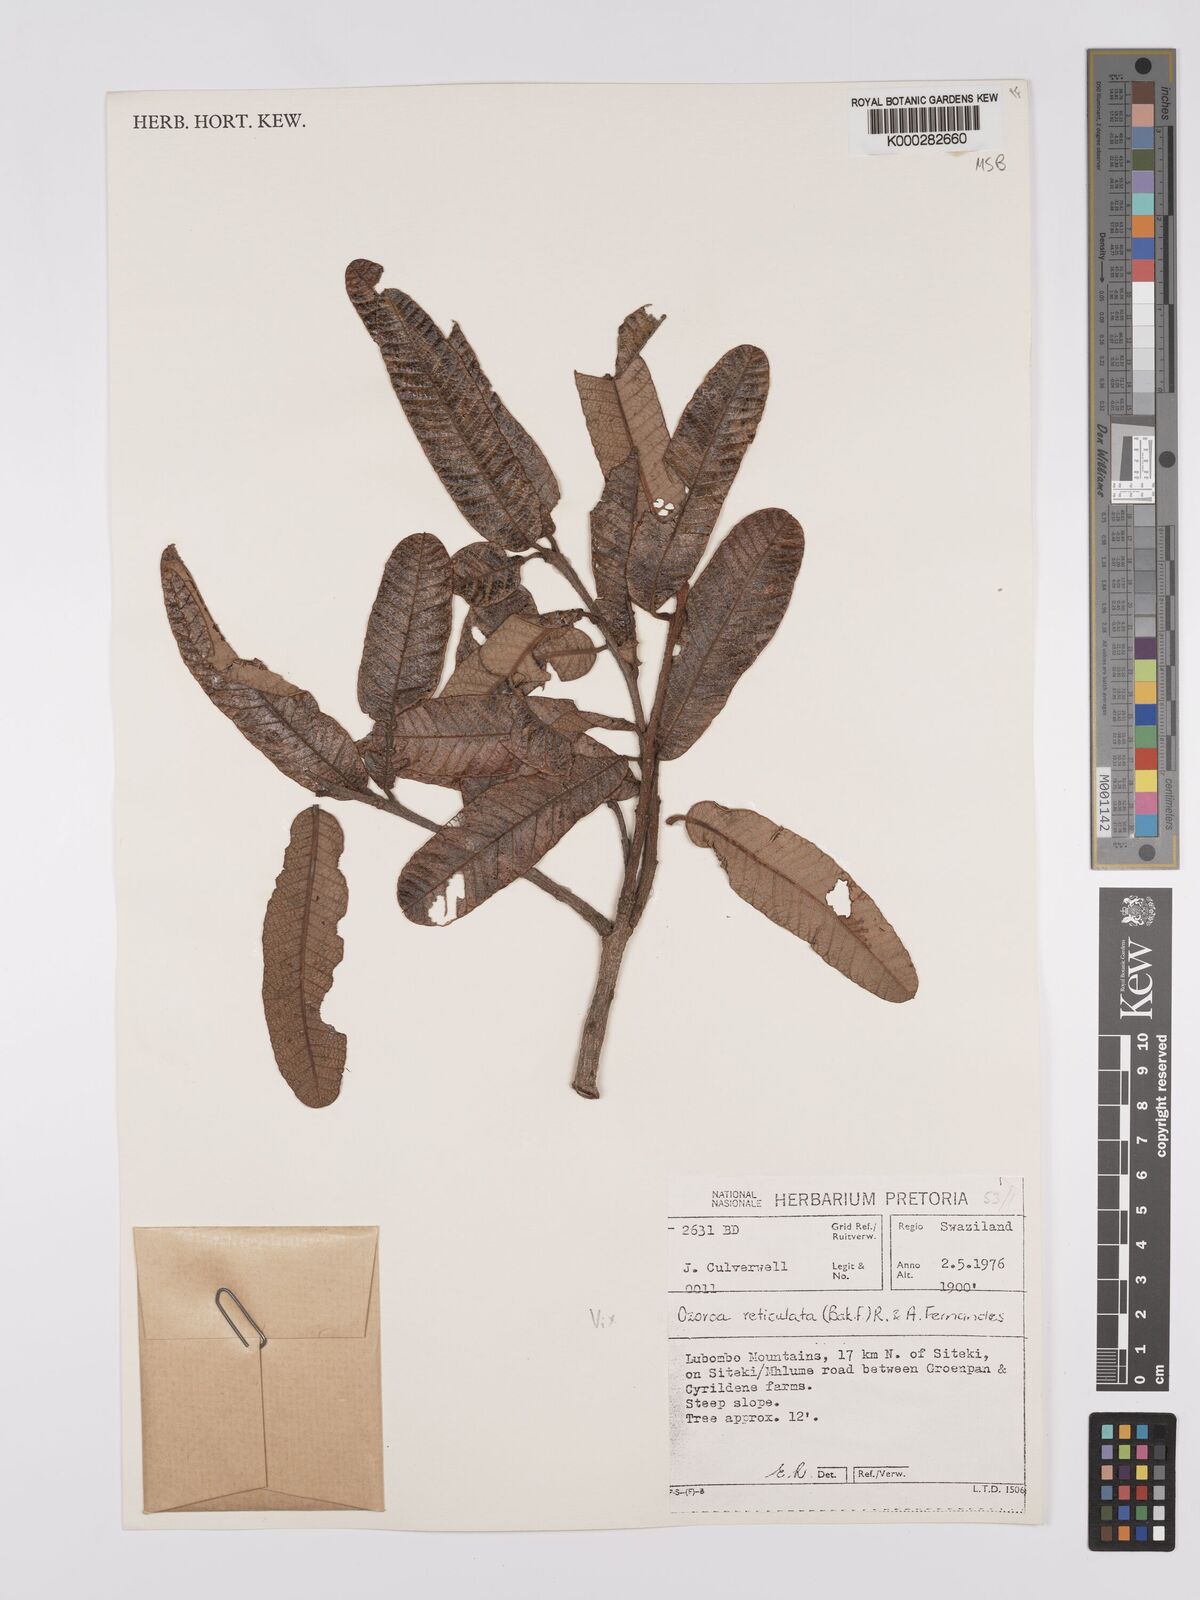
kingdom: Plantae
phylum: Tracheophyta
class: Magnoliopsida
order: Sapindales
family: Anacardiaceae
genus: Ozoroa
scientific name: Ozoroa insignis
